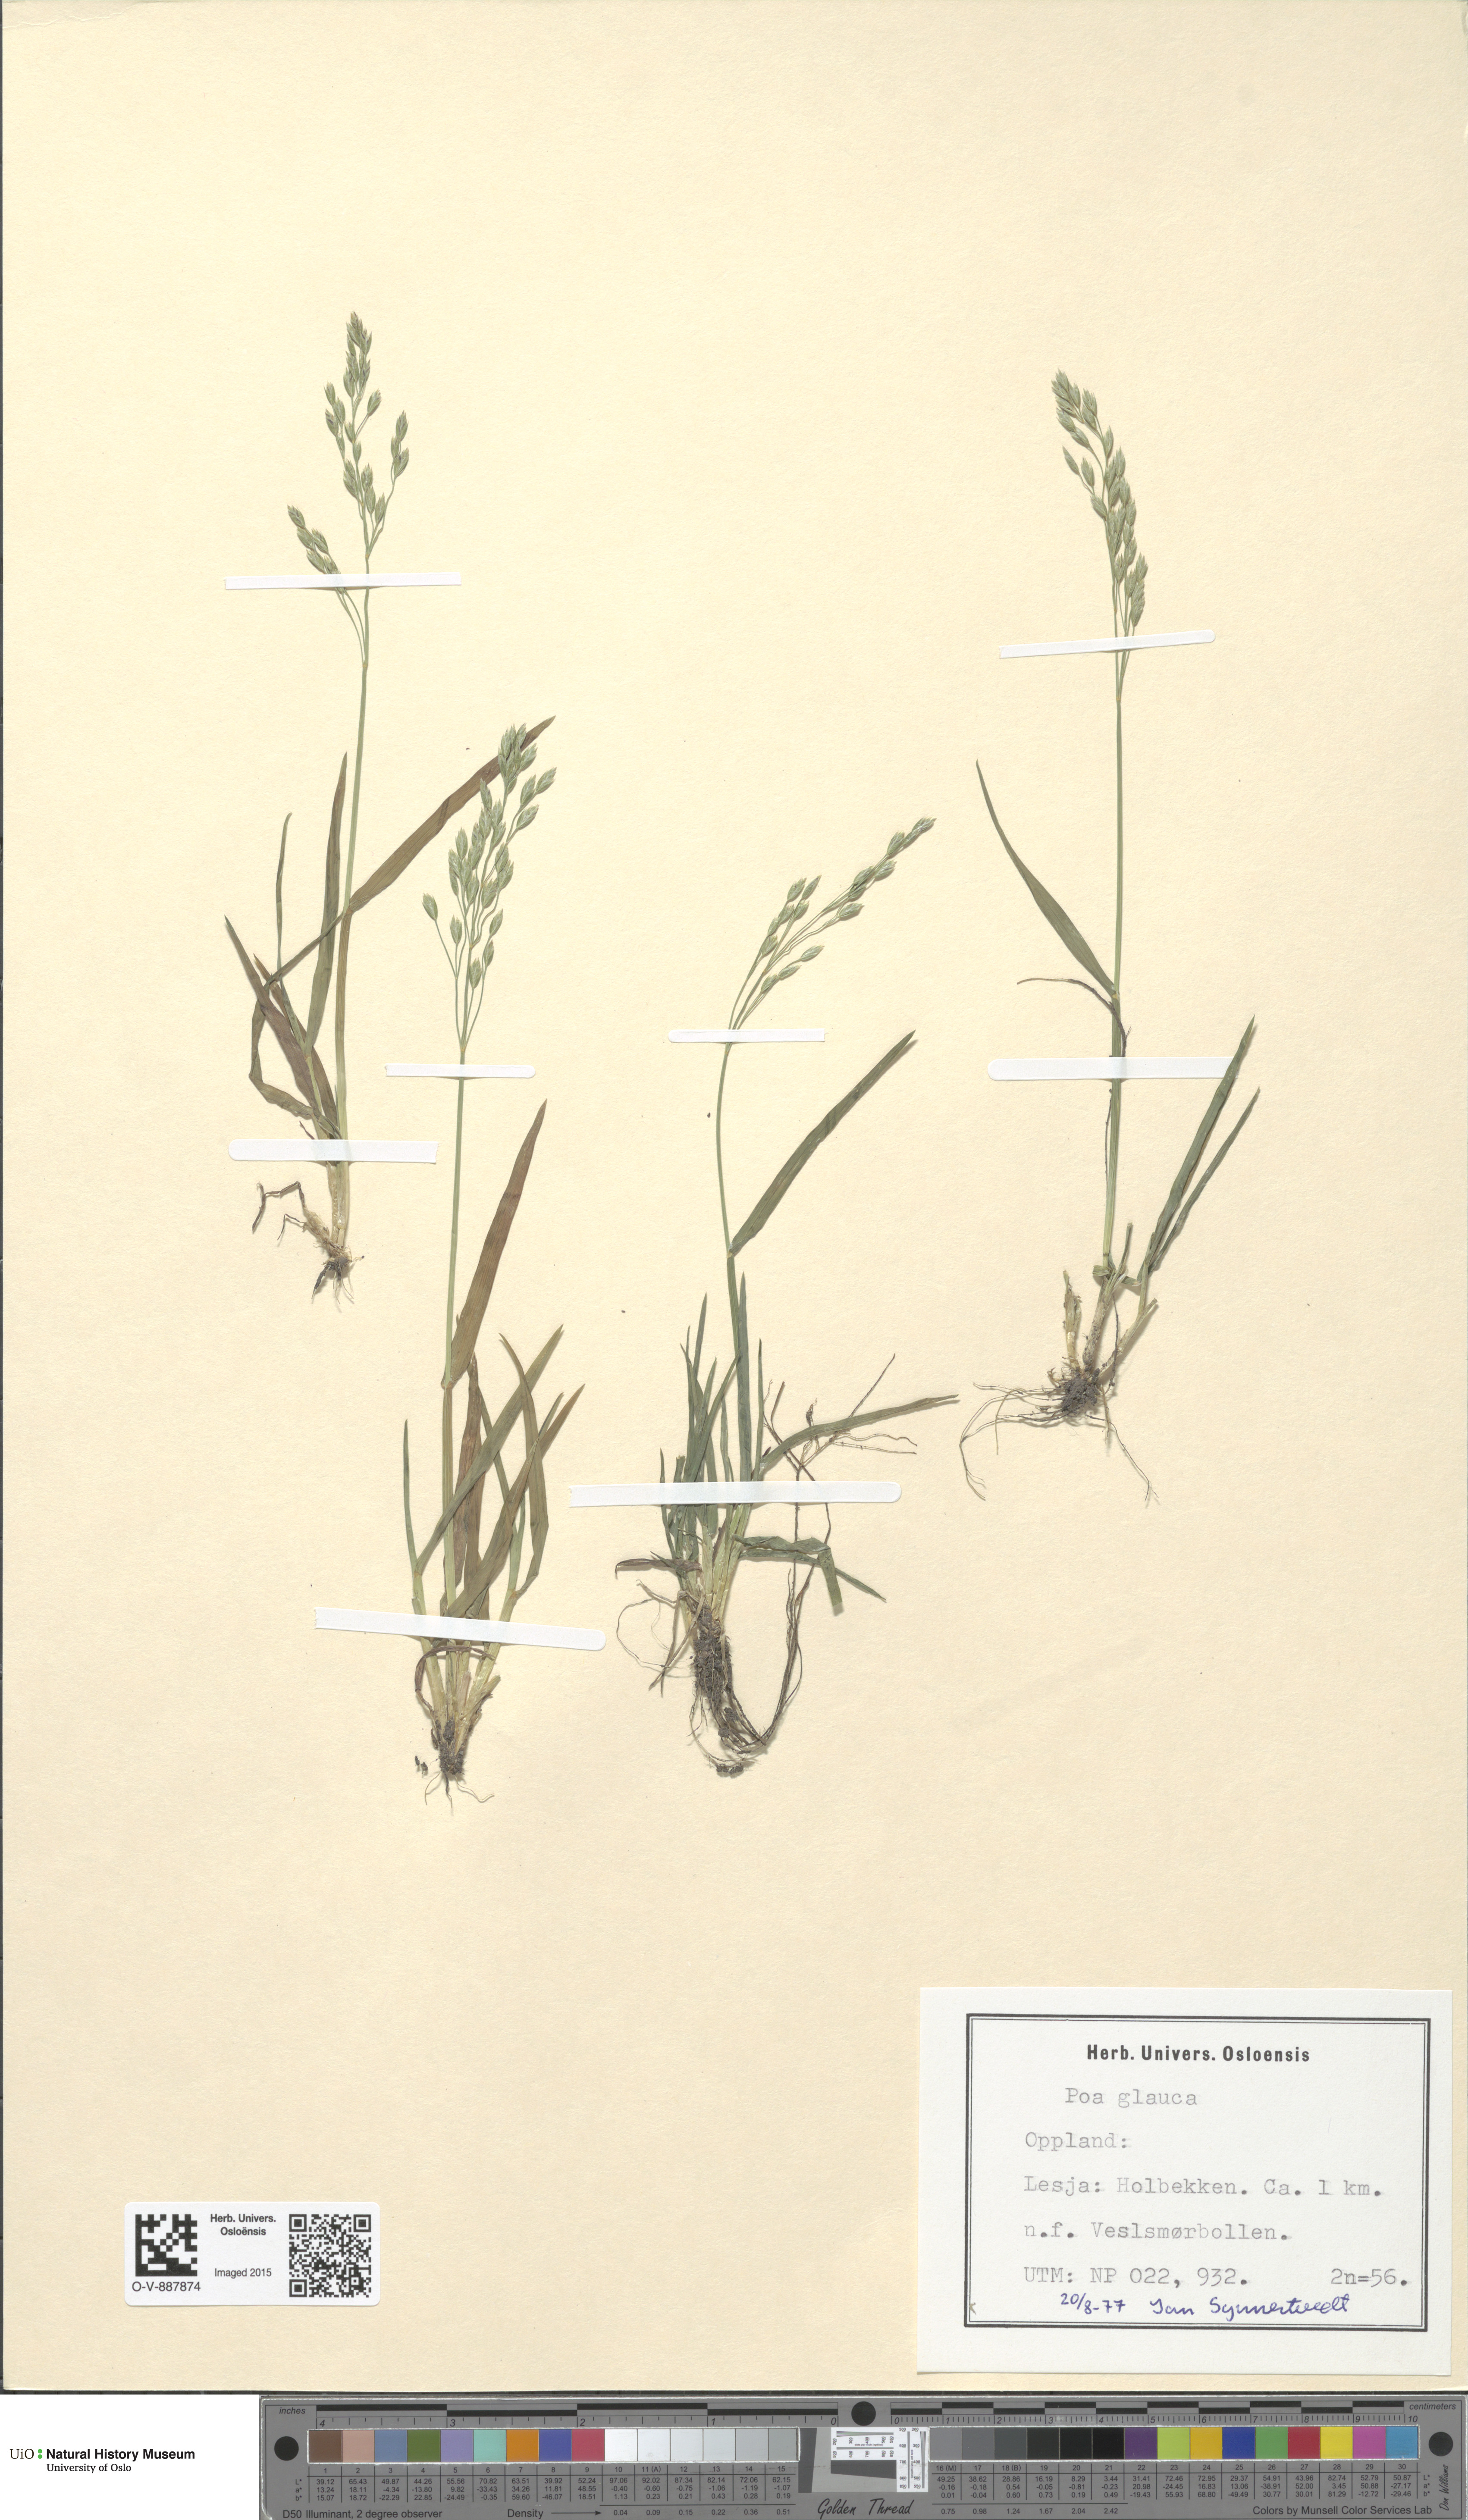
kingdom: Plantae
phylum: Tracheophyta
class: Liliopsida
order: Poales
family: Poaceae
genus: Poa
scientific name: Poa glauca
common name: Glaucous bluegrass
